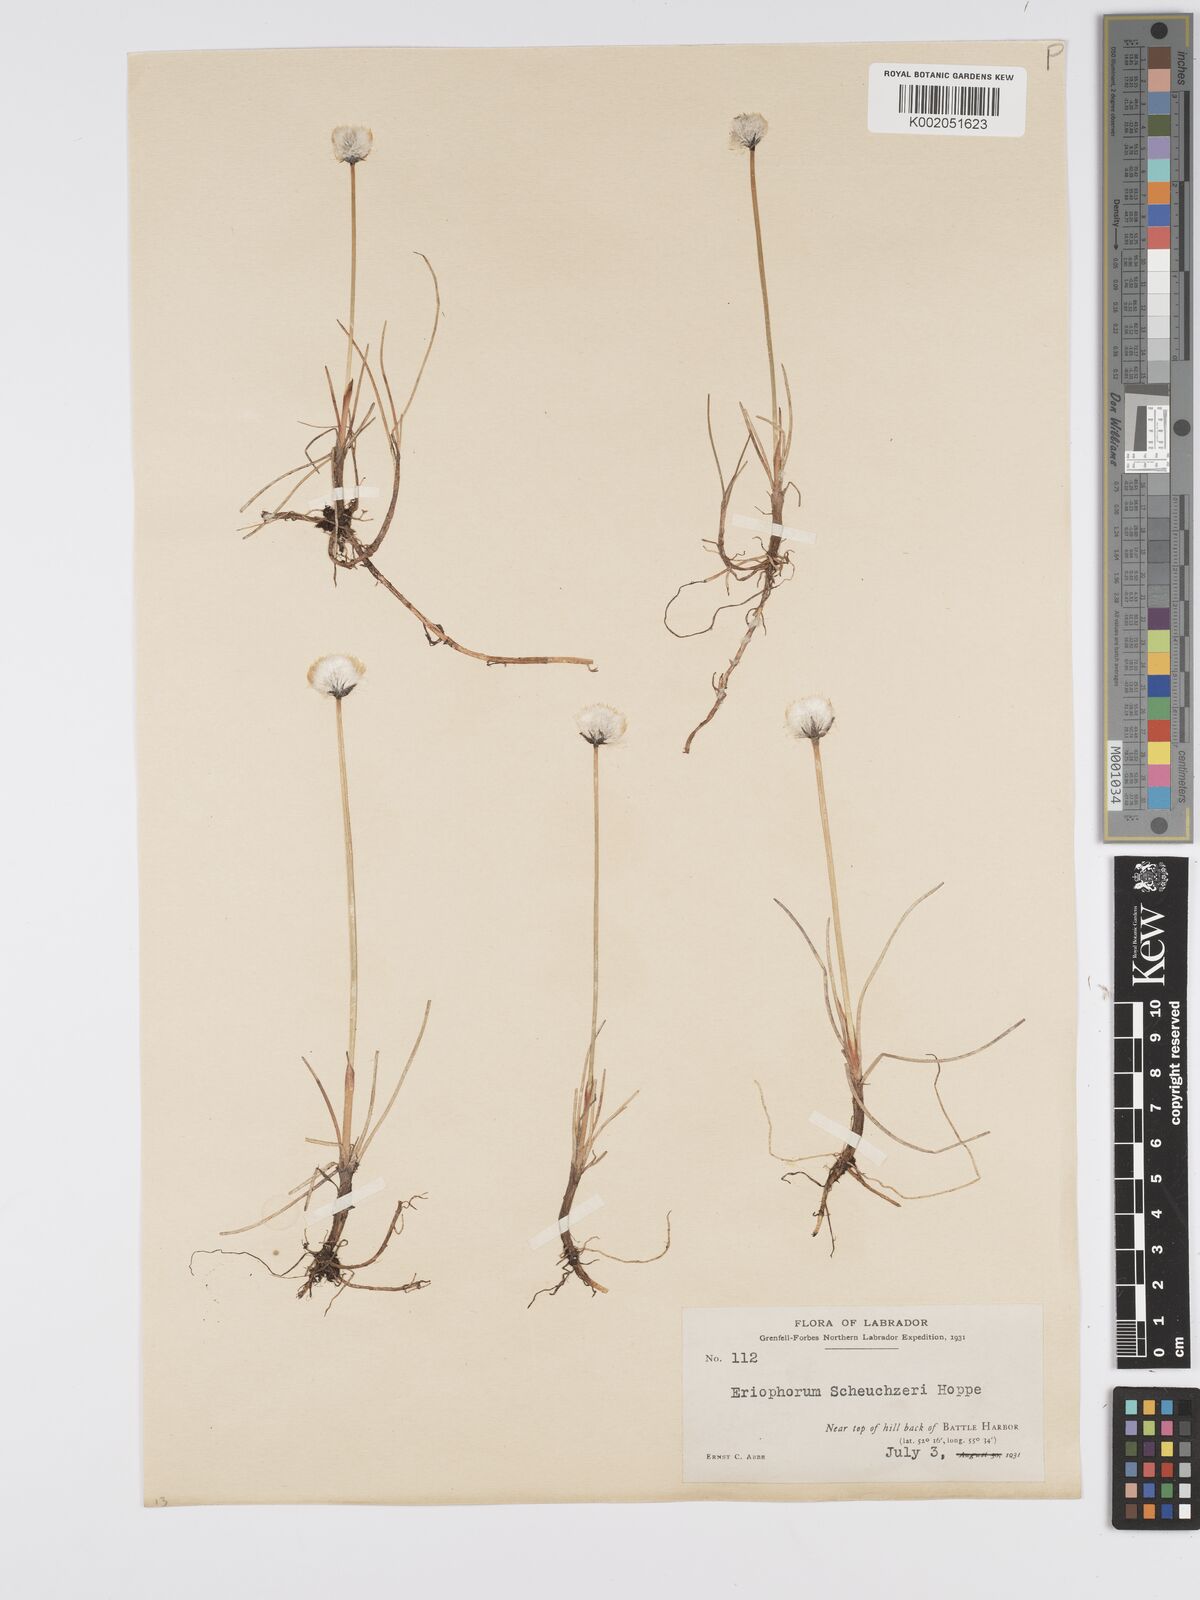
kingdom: Plantae
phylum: Tracheophyta
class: Liliopsida
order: Poales
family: Cyperaceae
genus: Eriophorum
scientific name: Eriophorum scheuchzeri
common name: Scheuchzer's cottongrass
